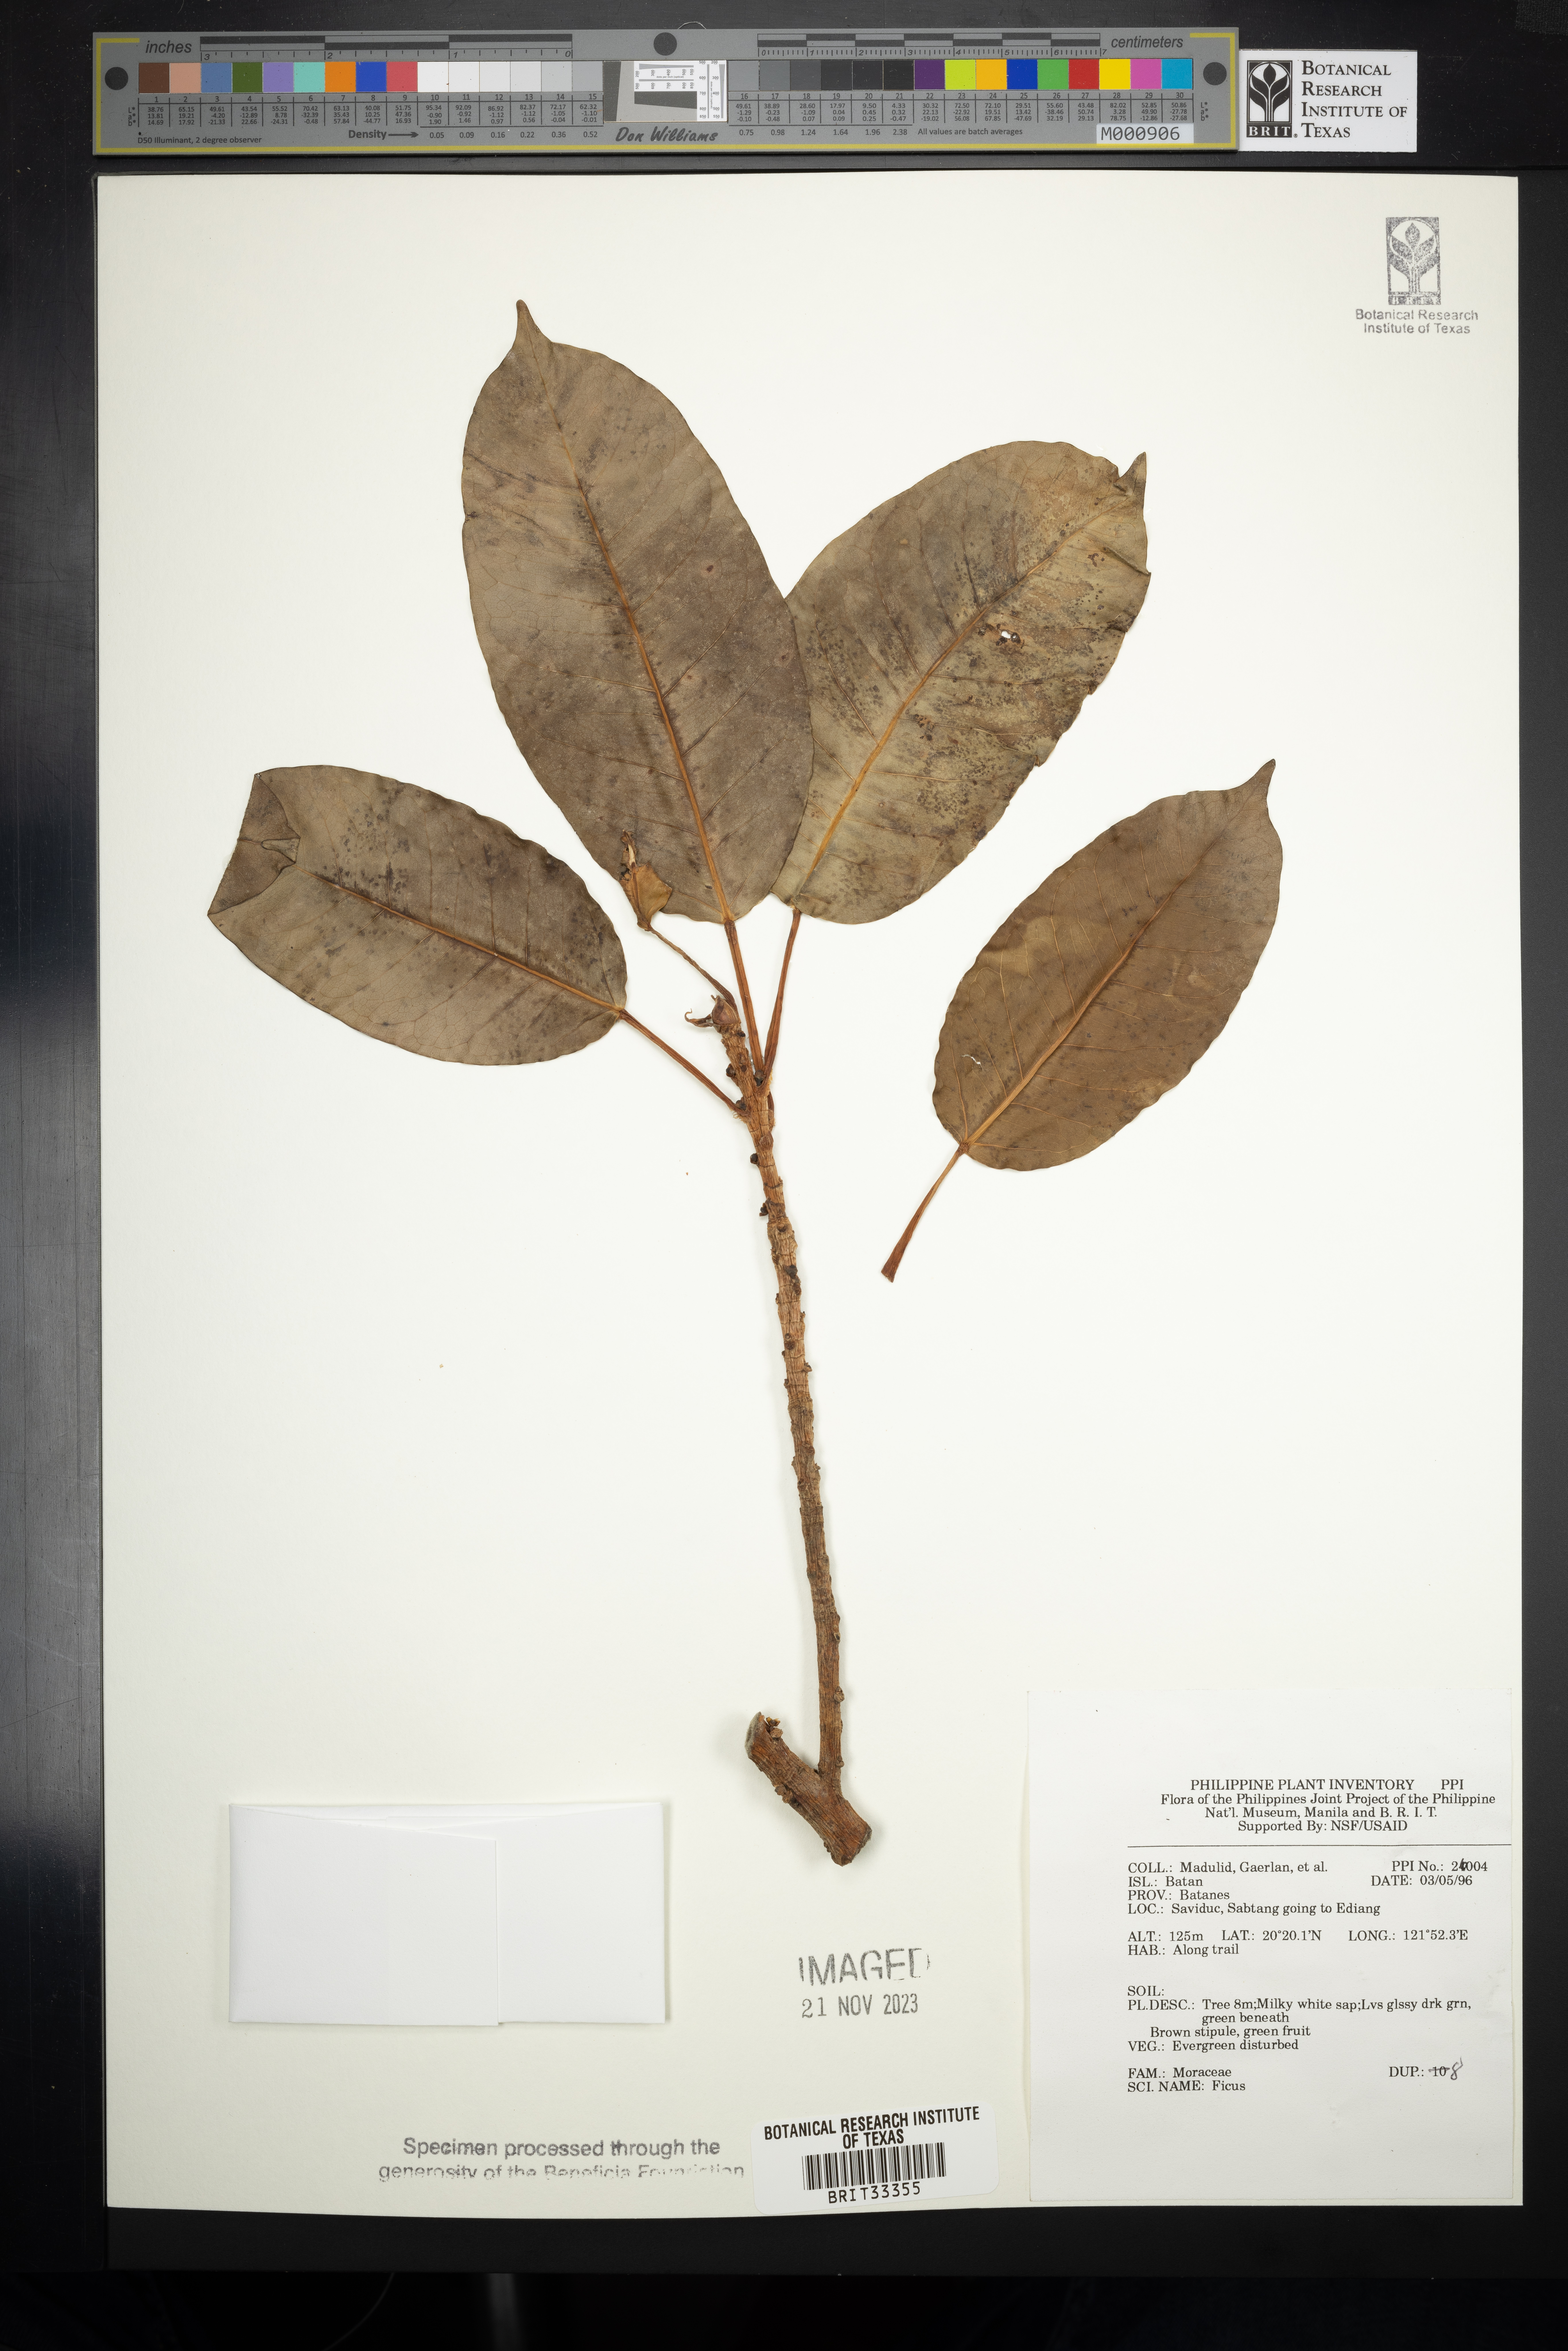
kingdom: Plantae
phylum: Tracheophyta
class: Magnoliopsida
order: Rosales
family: Moraceae
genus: Ficus
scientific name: Ficus
